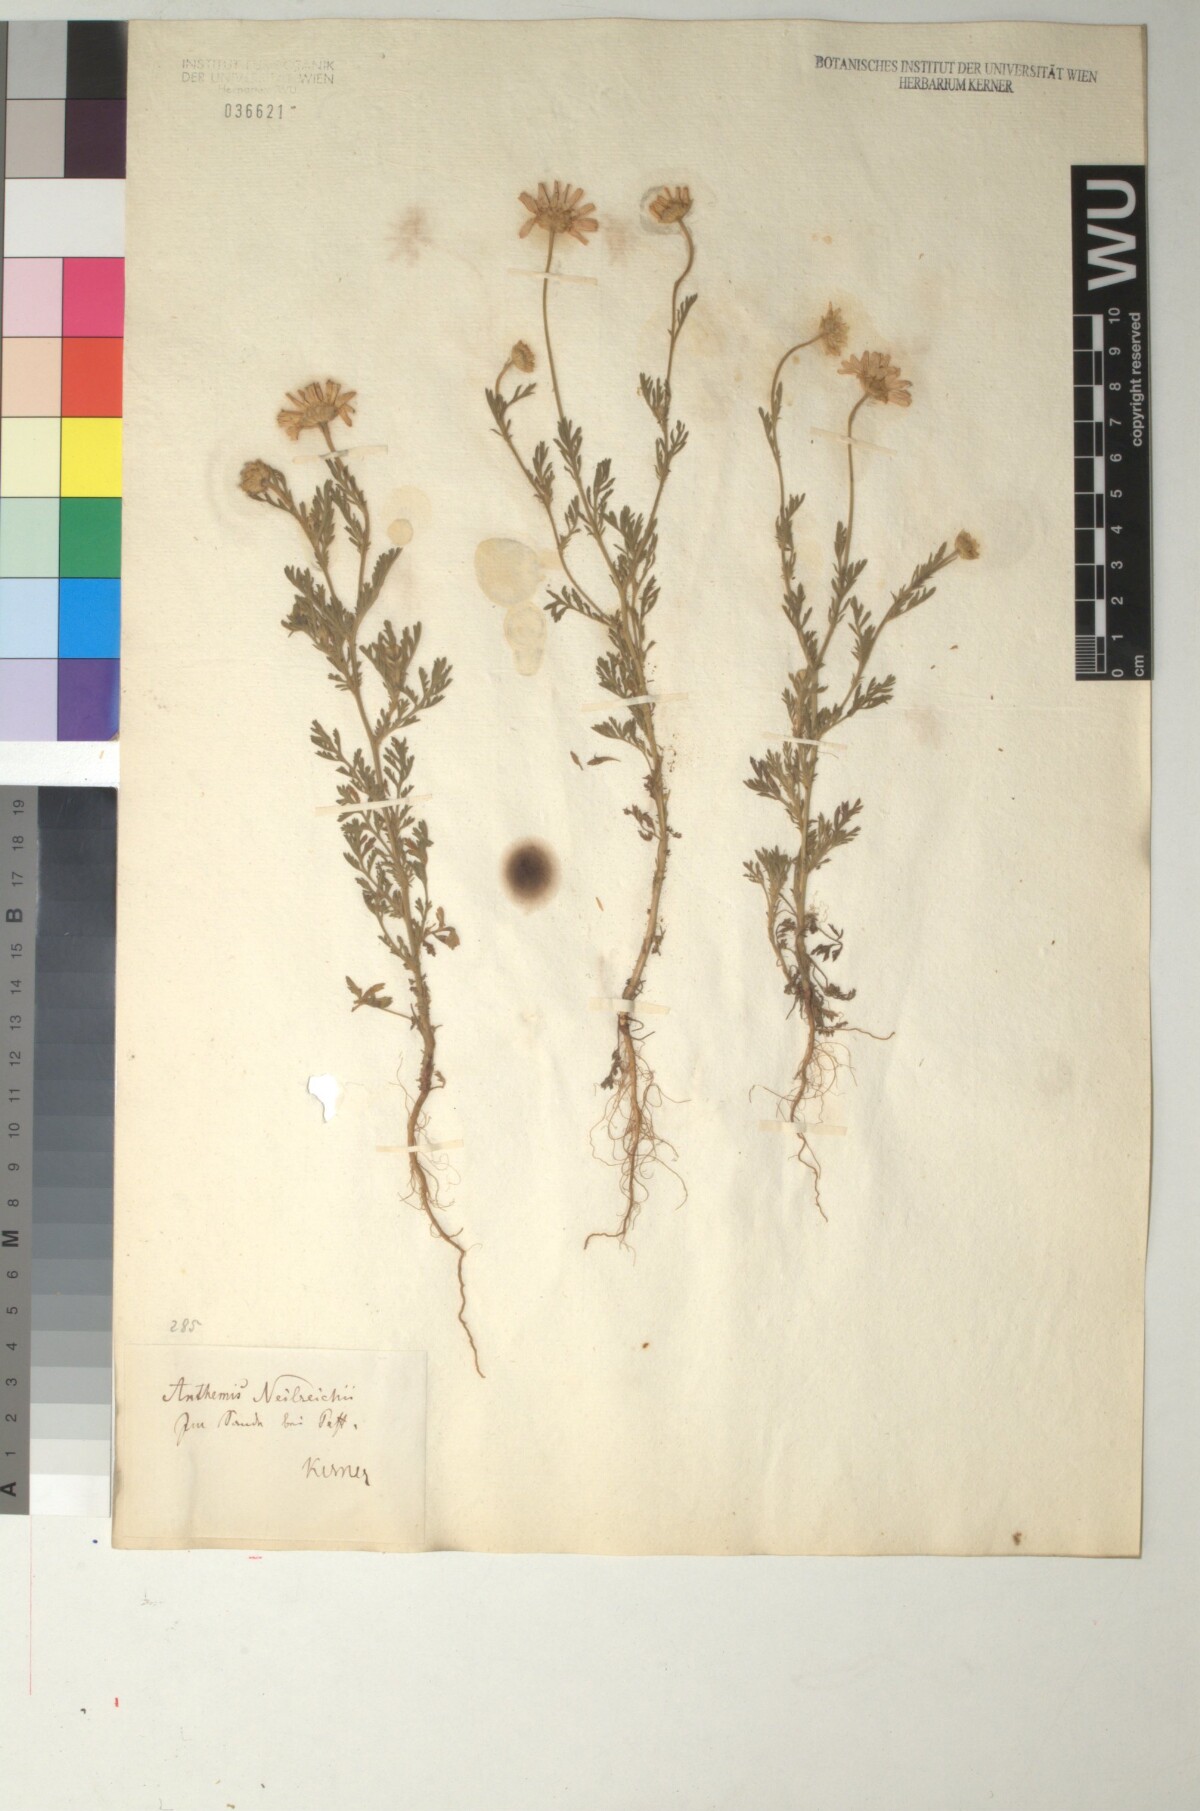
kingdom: Plantae
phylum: Tracheophyta
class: Magnoliopsida
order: Asterales
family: Asteraceae
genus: Anthemis
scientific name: Anthemis ruthenica
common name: Eastern chamomile
